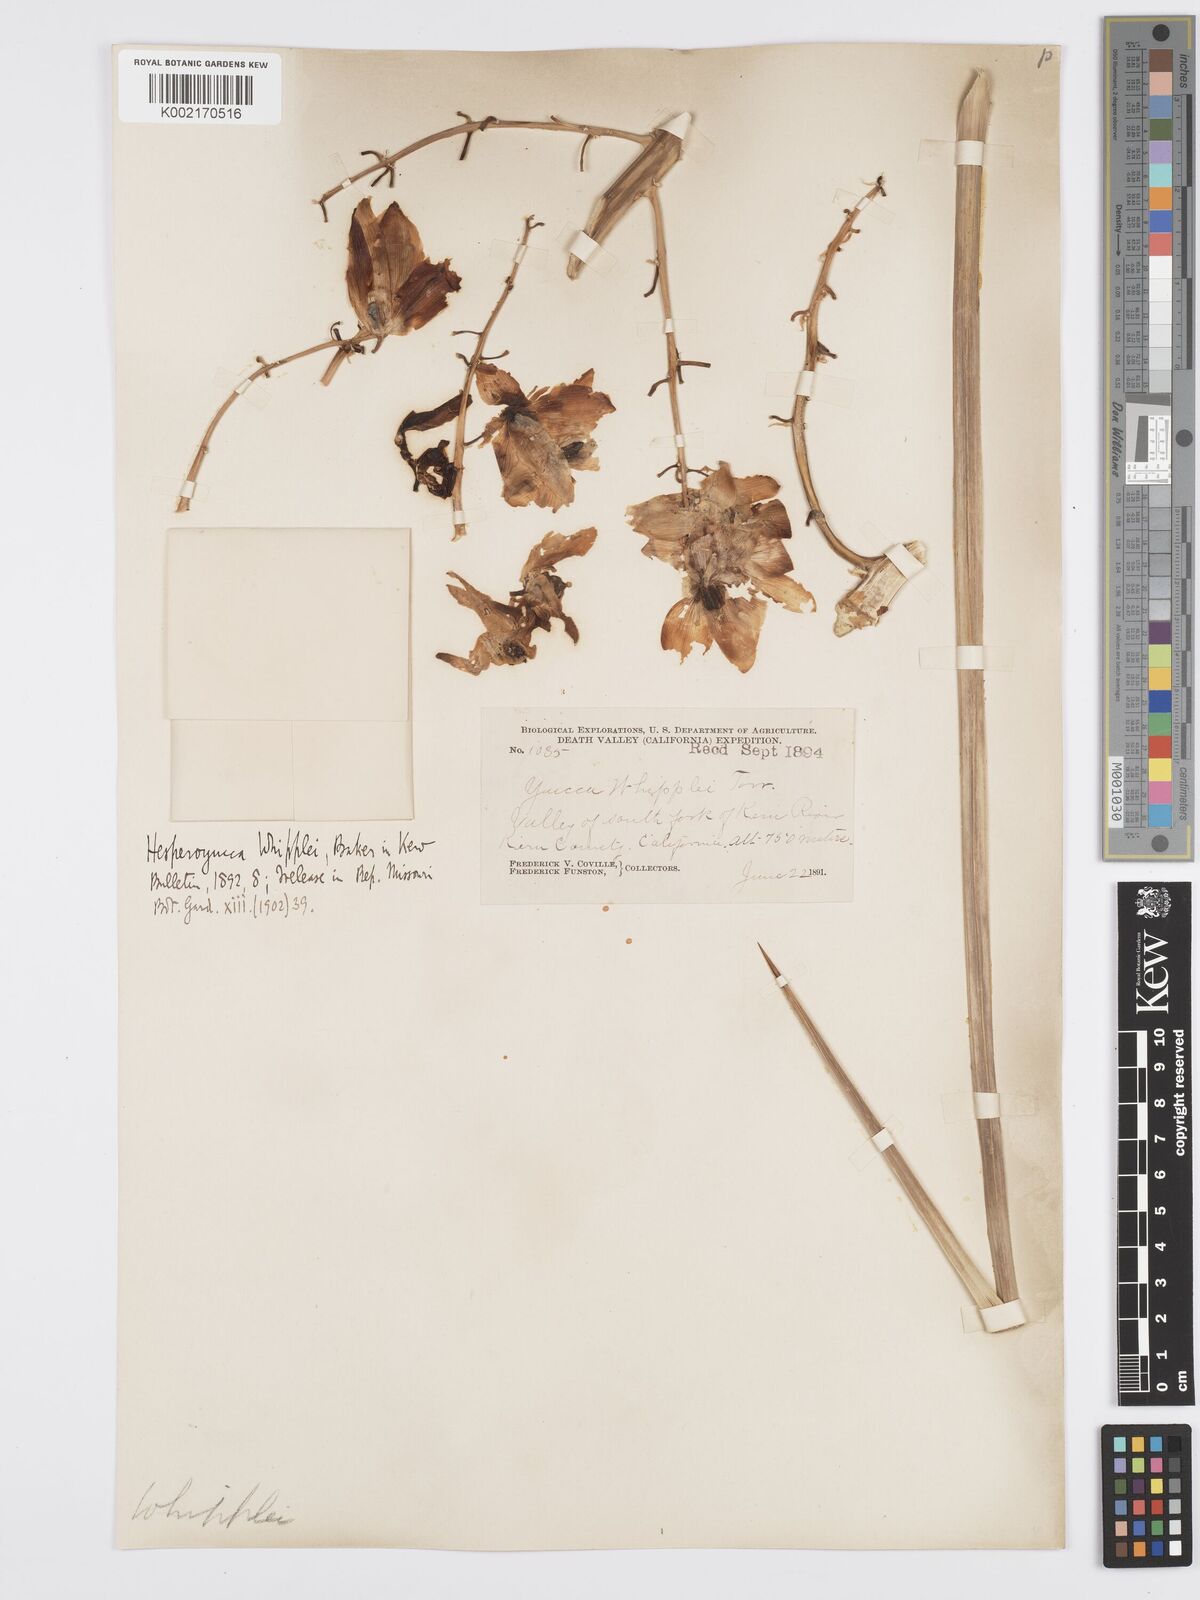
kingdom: Plantae
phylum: Tracheophyta
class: Liliopsida
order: Asparagales
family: Asparagaceae
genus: Hesperoyucca
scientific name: Hesperoyucca whipplei
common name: Our lord's-candle
